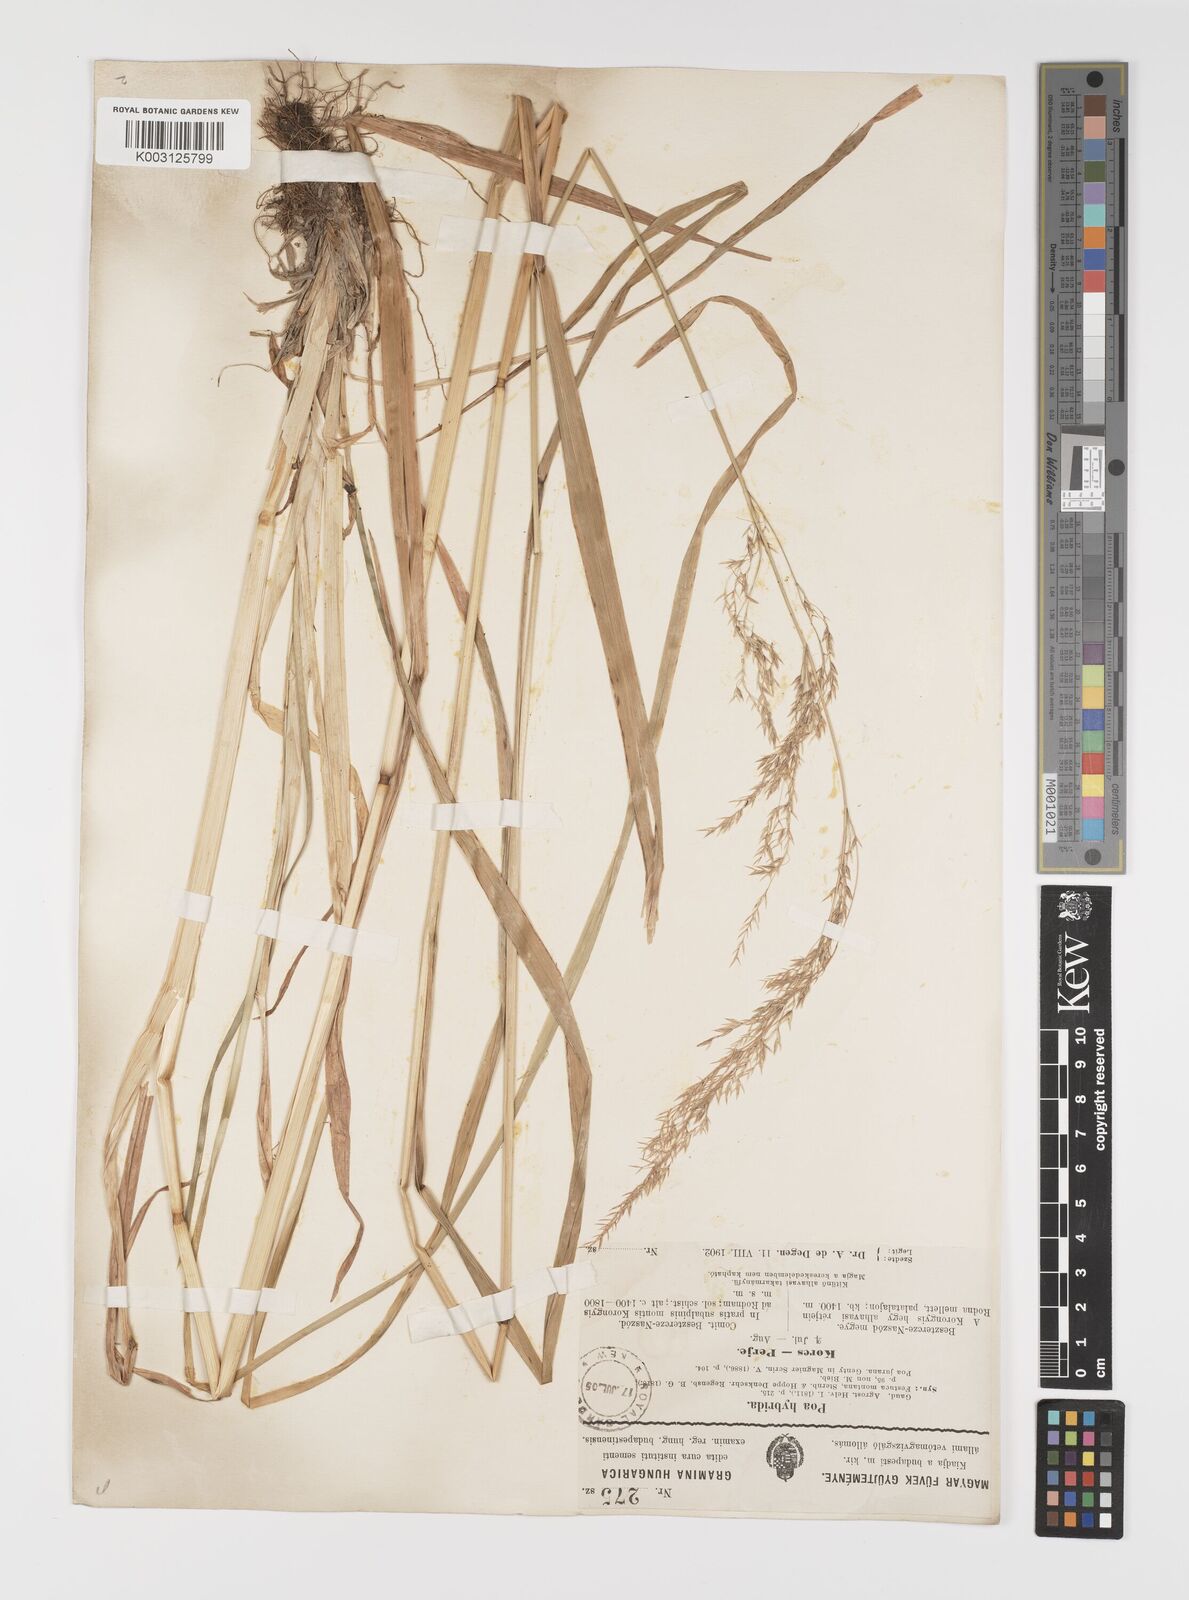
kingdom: Plantae
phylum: Tracheophyta
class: Liliopsida
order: Poales
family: Poaceae
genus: Poa
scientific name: Poa hybrida
